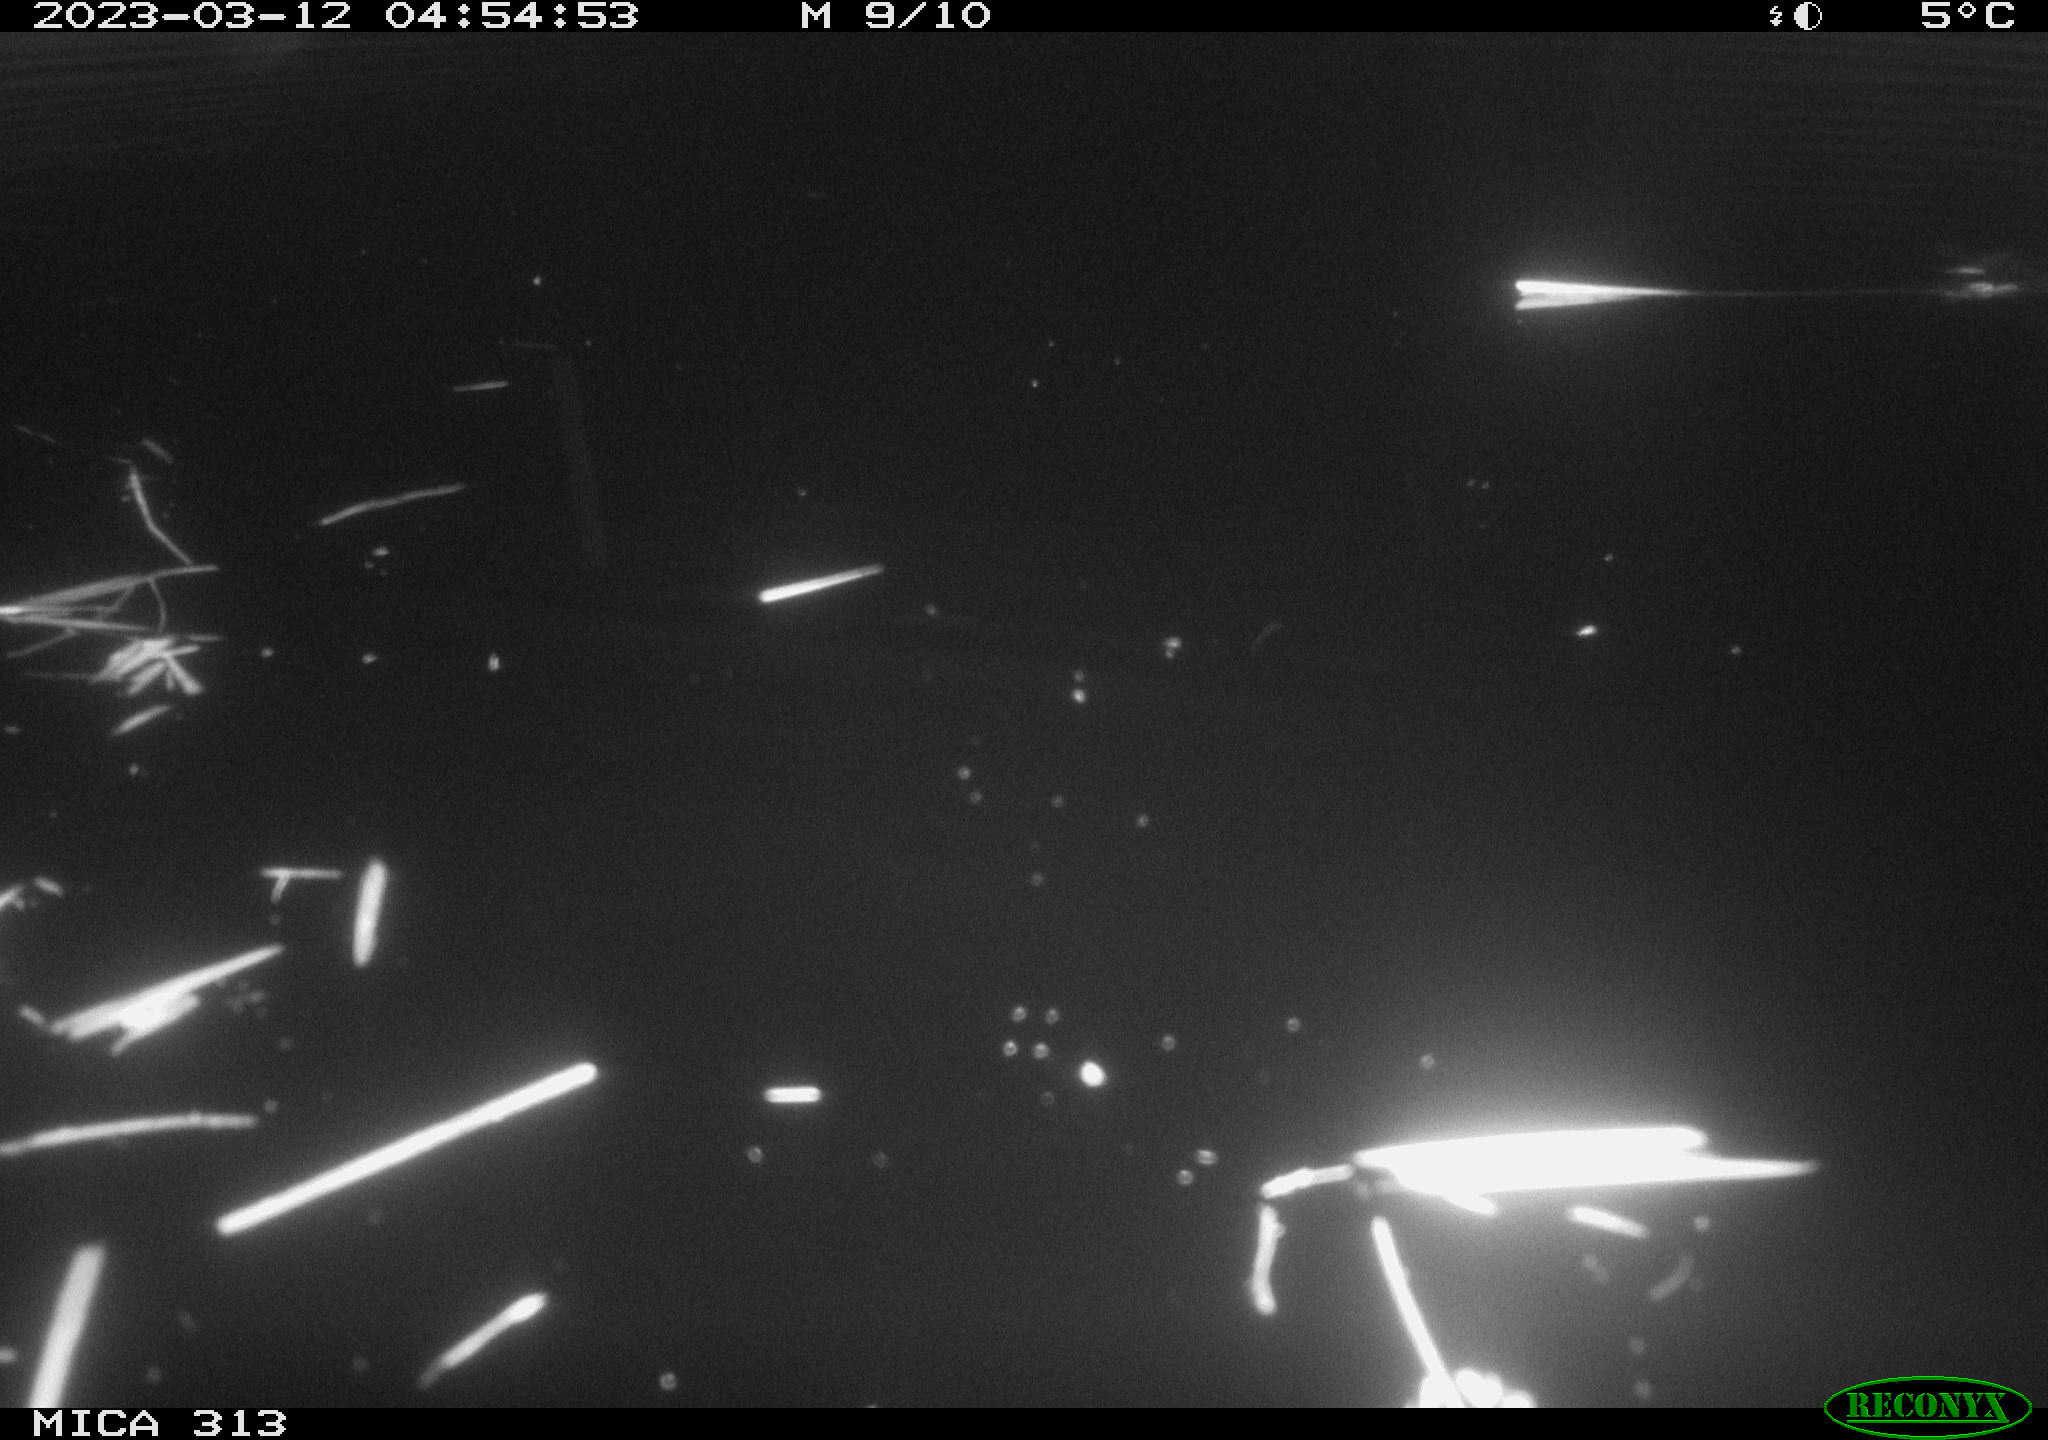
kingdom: Animalia
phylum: Chordata
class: Mammalia
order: Rodentia
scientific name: Rodentia
